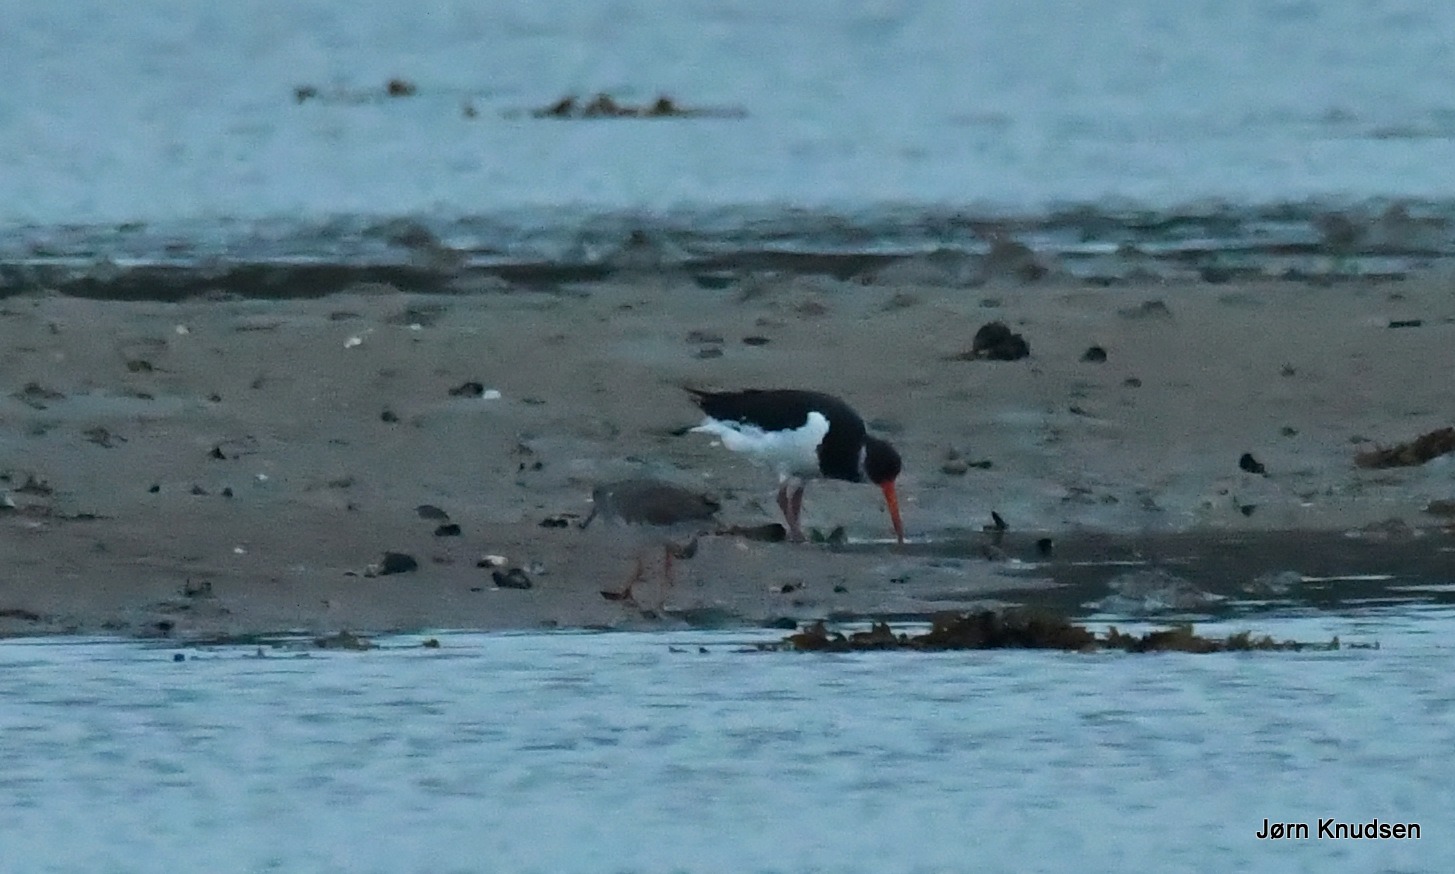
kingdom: Animalia
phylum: Chordata
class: Aves
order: Charadriiformes
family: Haematopodidae
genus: Haematopus
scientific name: Haematopus ostralegus
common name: Strandskade
